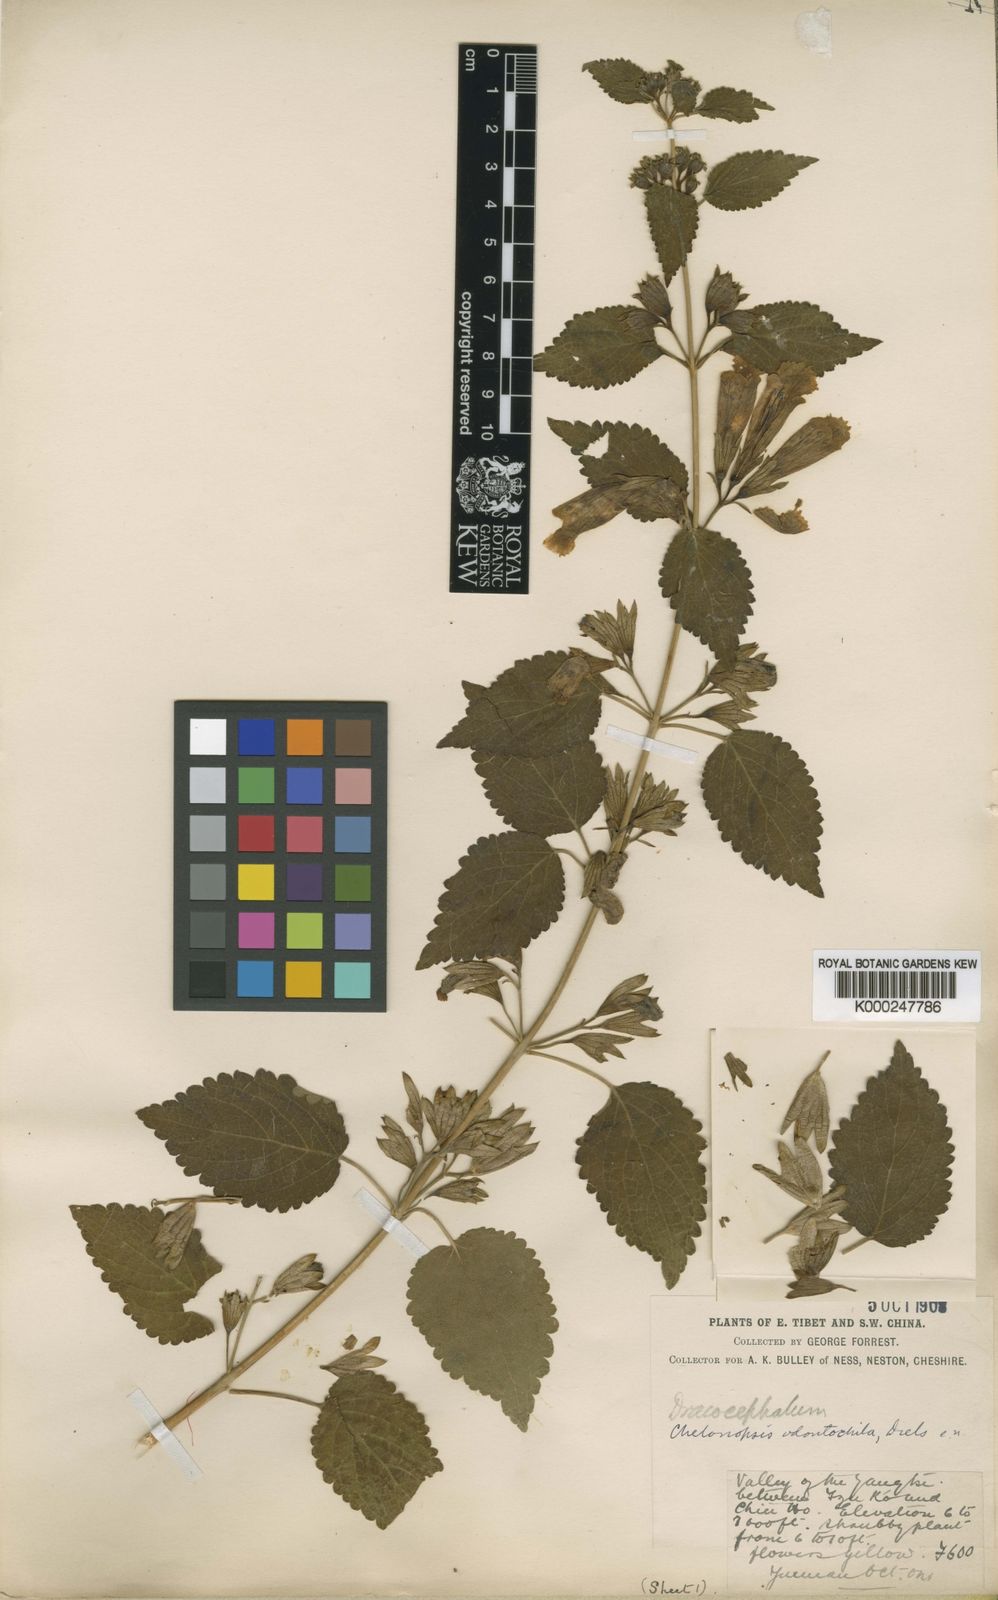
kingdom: Plantae
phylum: Tracheophyta
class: Magnoliopsida
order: Lamiales
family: Lamiaceae
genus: Chelonopsis
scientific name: Chelonopsis odontochila
